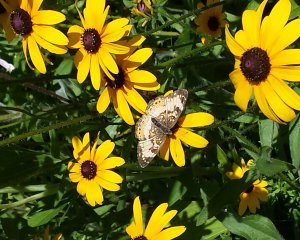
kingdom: Animalia
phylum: Arthropoda
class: Insecta
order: Lepidoptera
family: Nymphalidae
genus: Chlosyne
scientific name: Chlosyne nycteis
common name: Silvery Checkerspot
